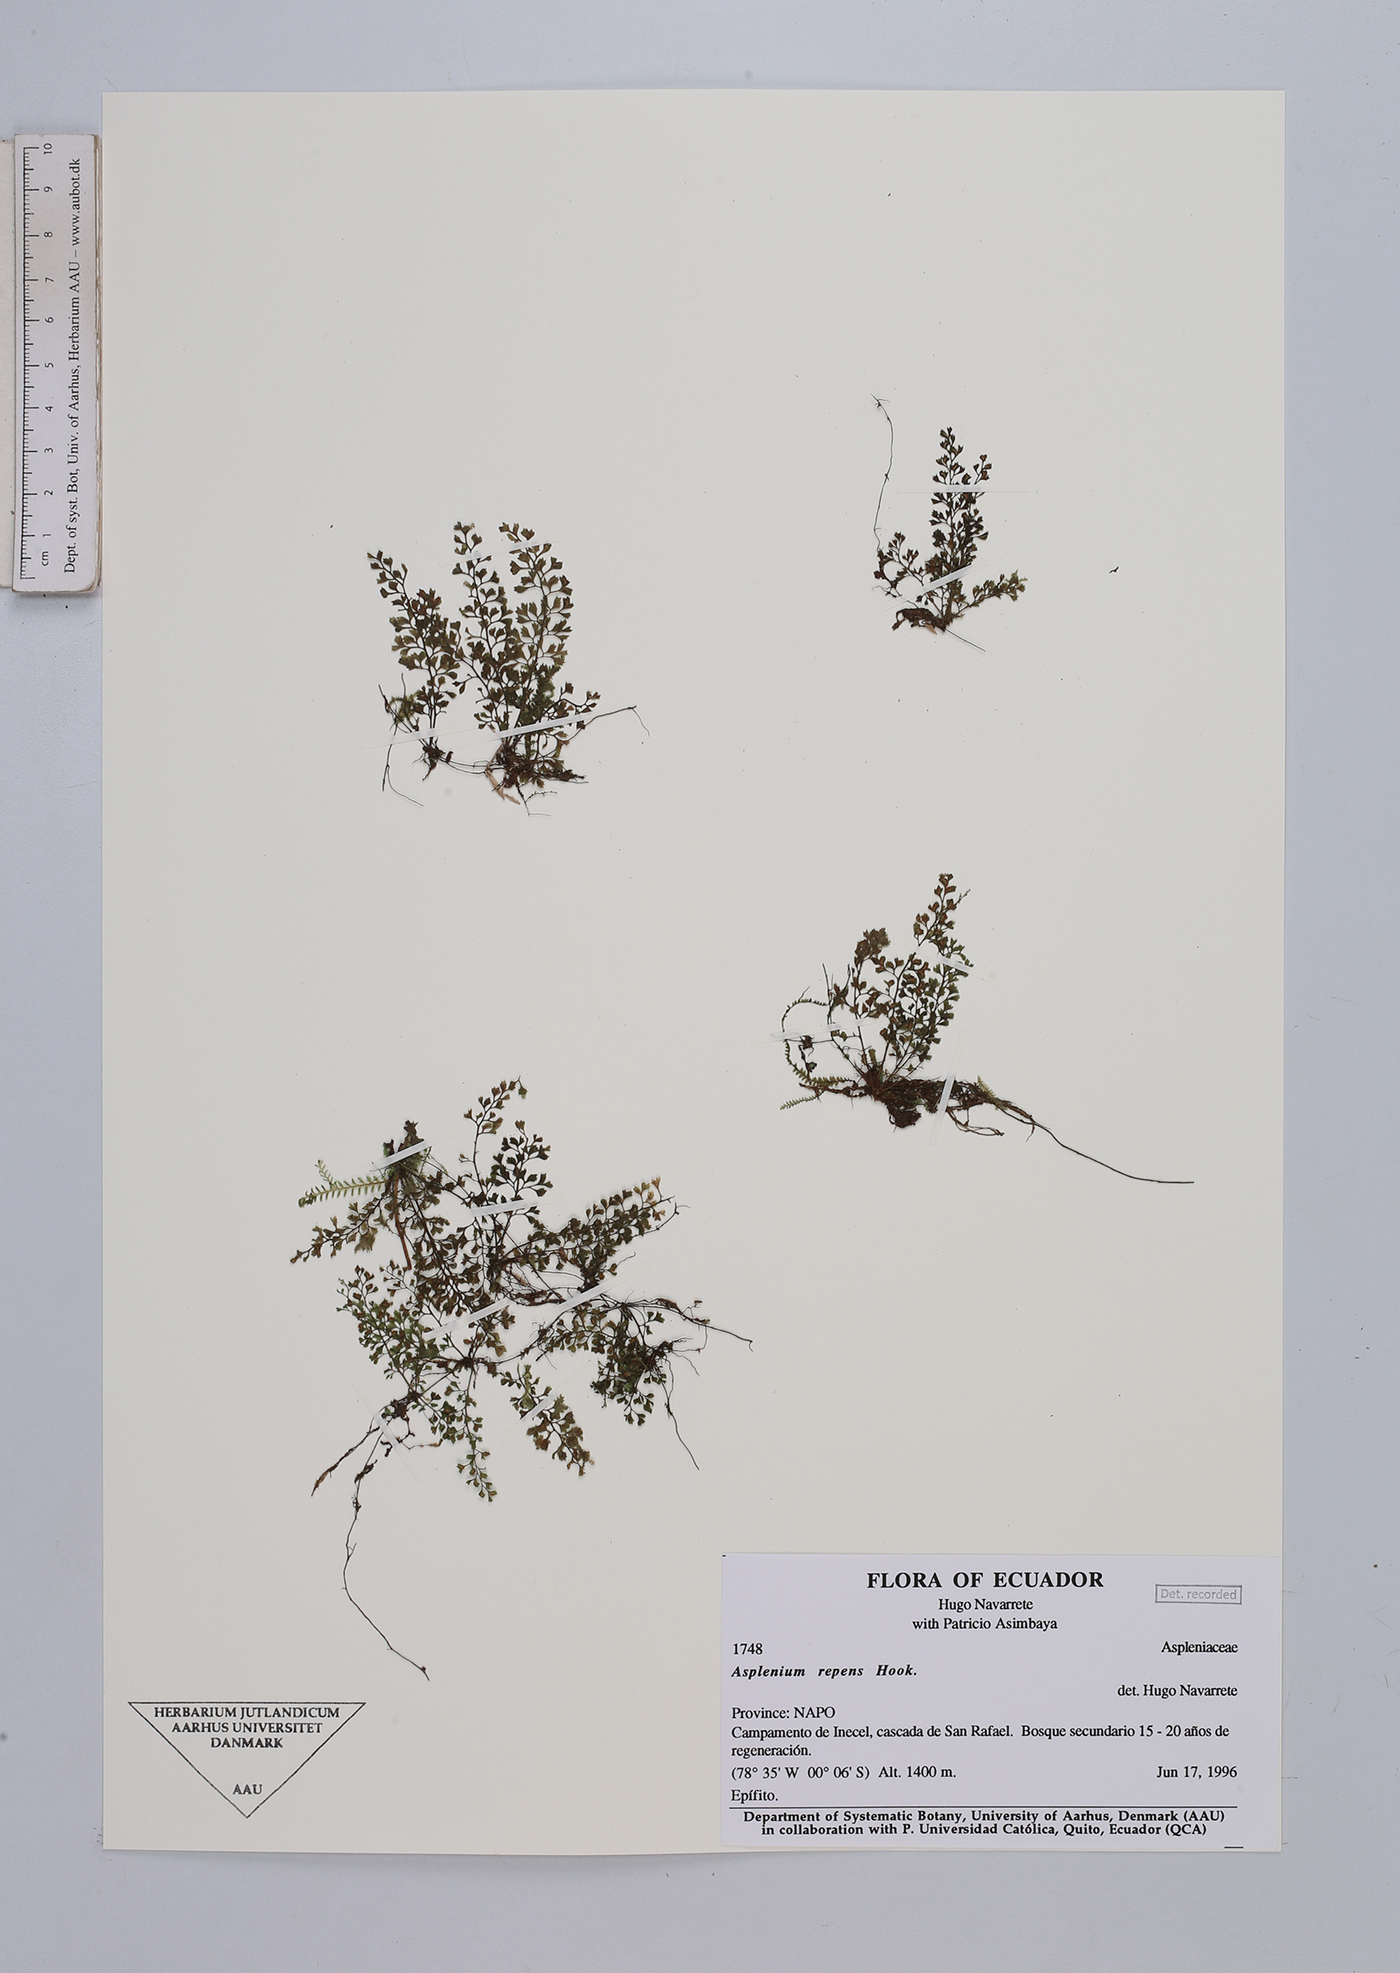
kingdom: Plantae
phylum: Tracheophyta
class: Polypodiopsida
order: Polypodiales
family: Aspleniaceae
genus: Asplenium
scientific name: Asplenium
